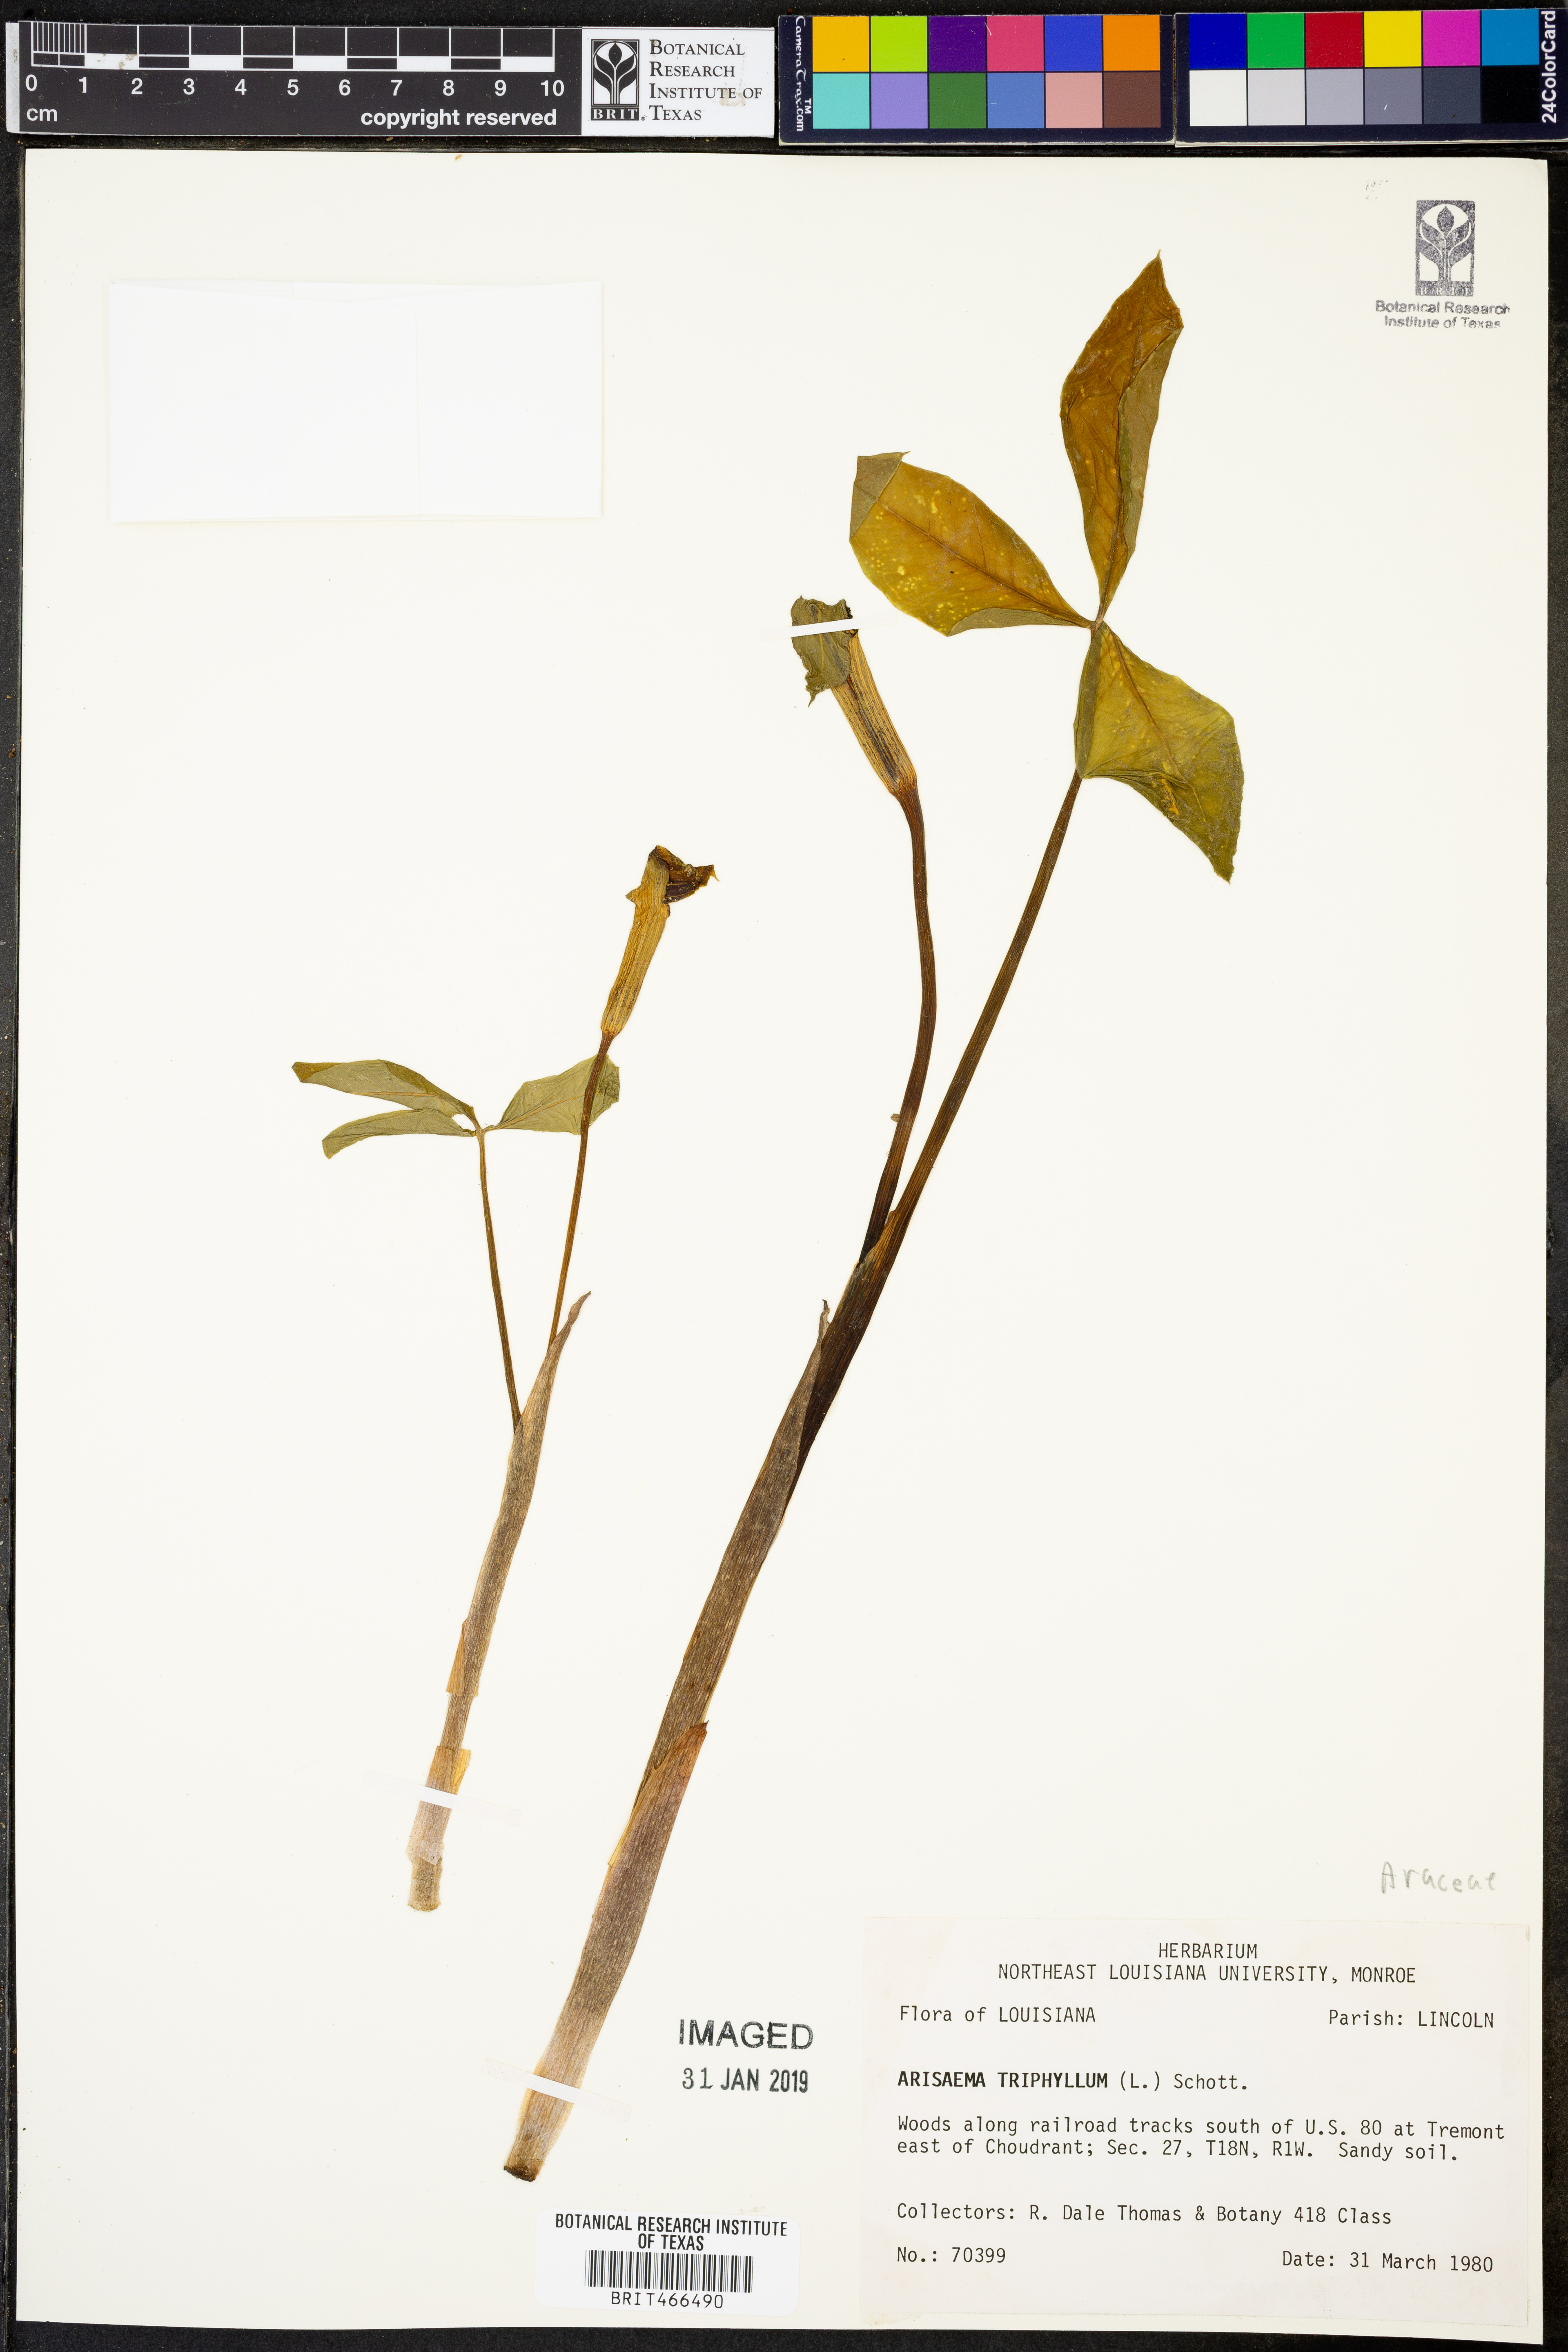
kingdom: Plantae
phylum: Tracheophyta
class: Liliopsida
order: Alismatales
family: Araceae
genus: Arisaema
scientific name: Arisaema triphyllum
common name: Jack-in-the-pulpit
